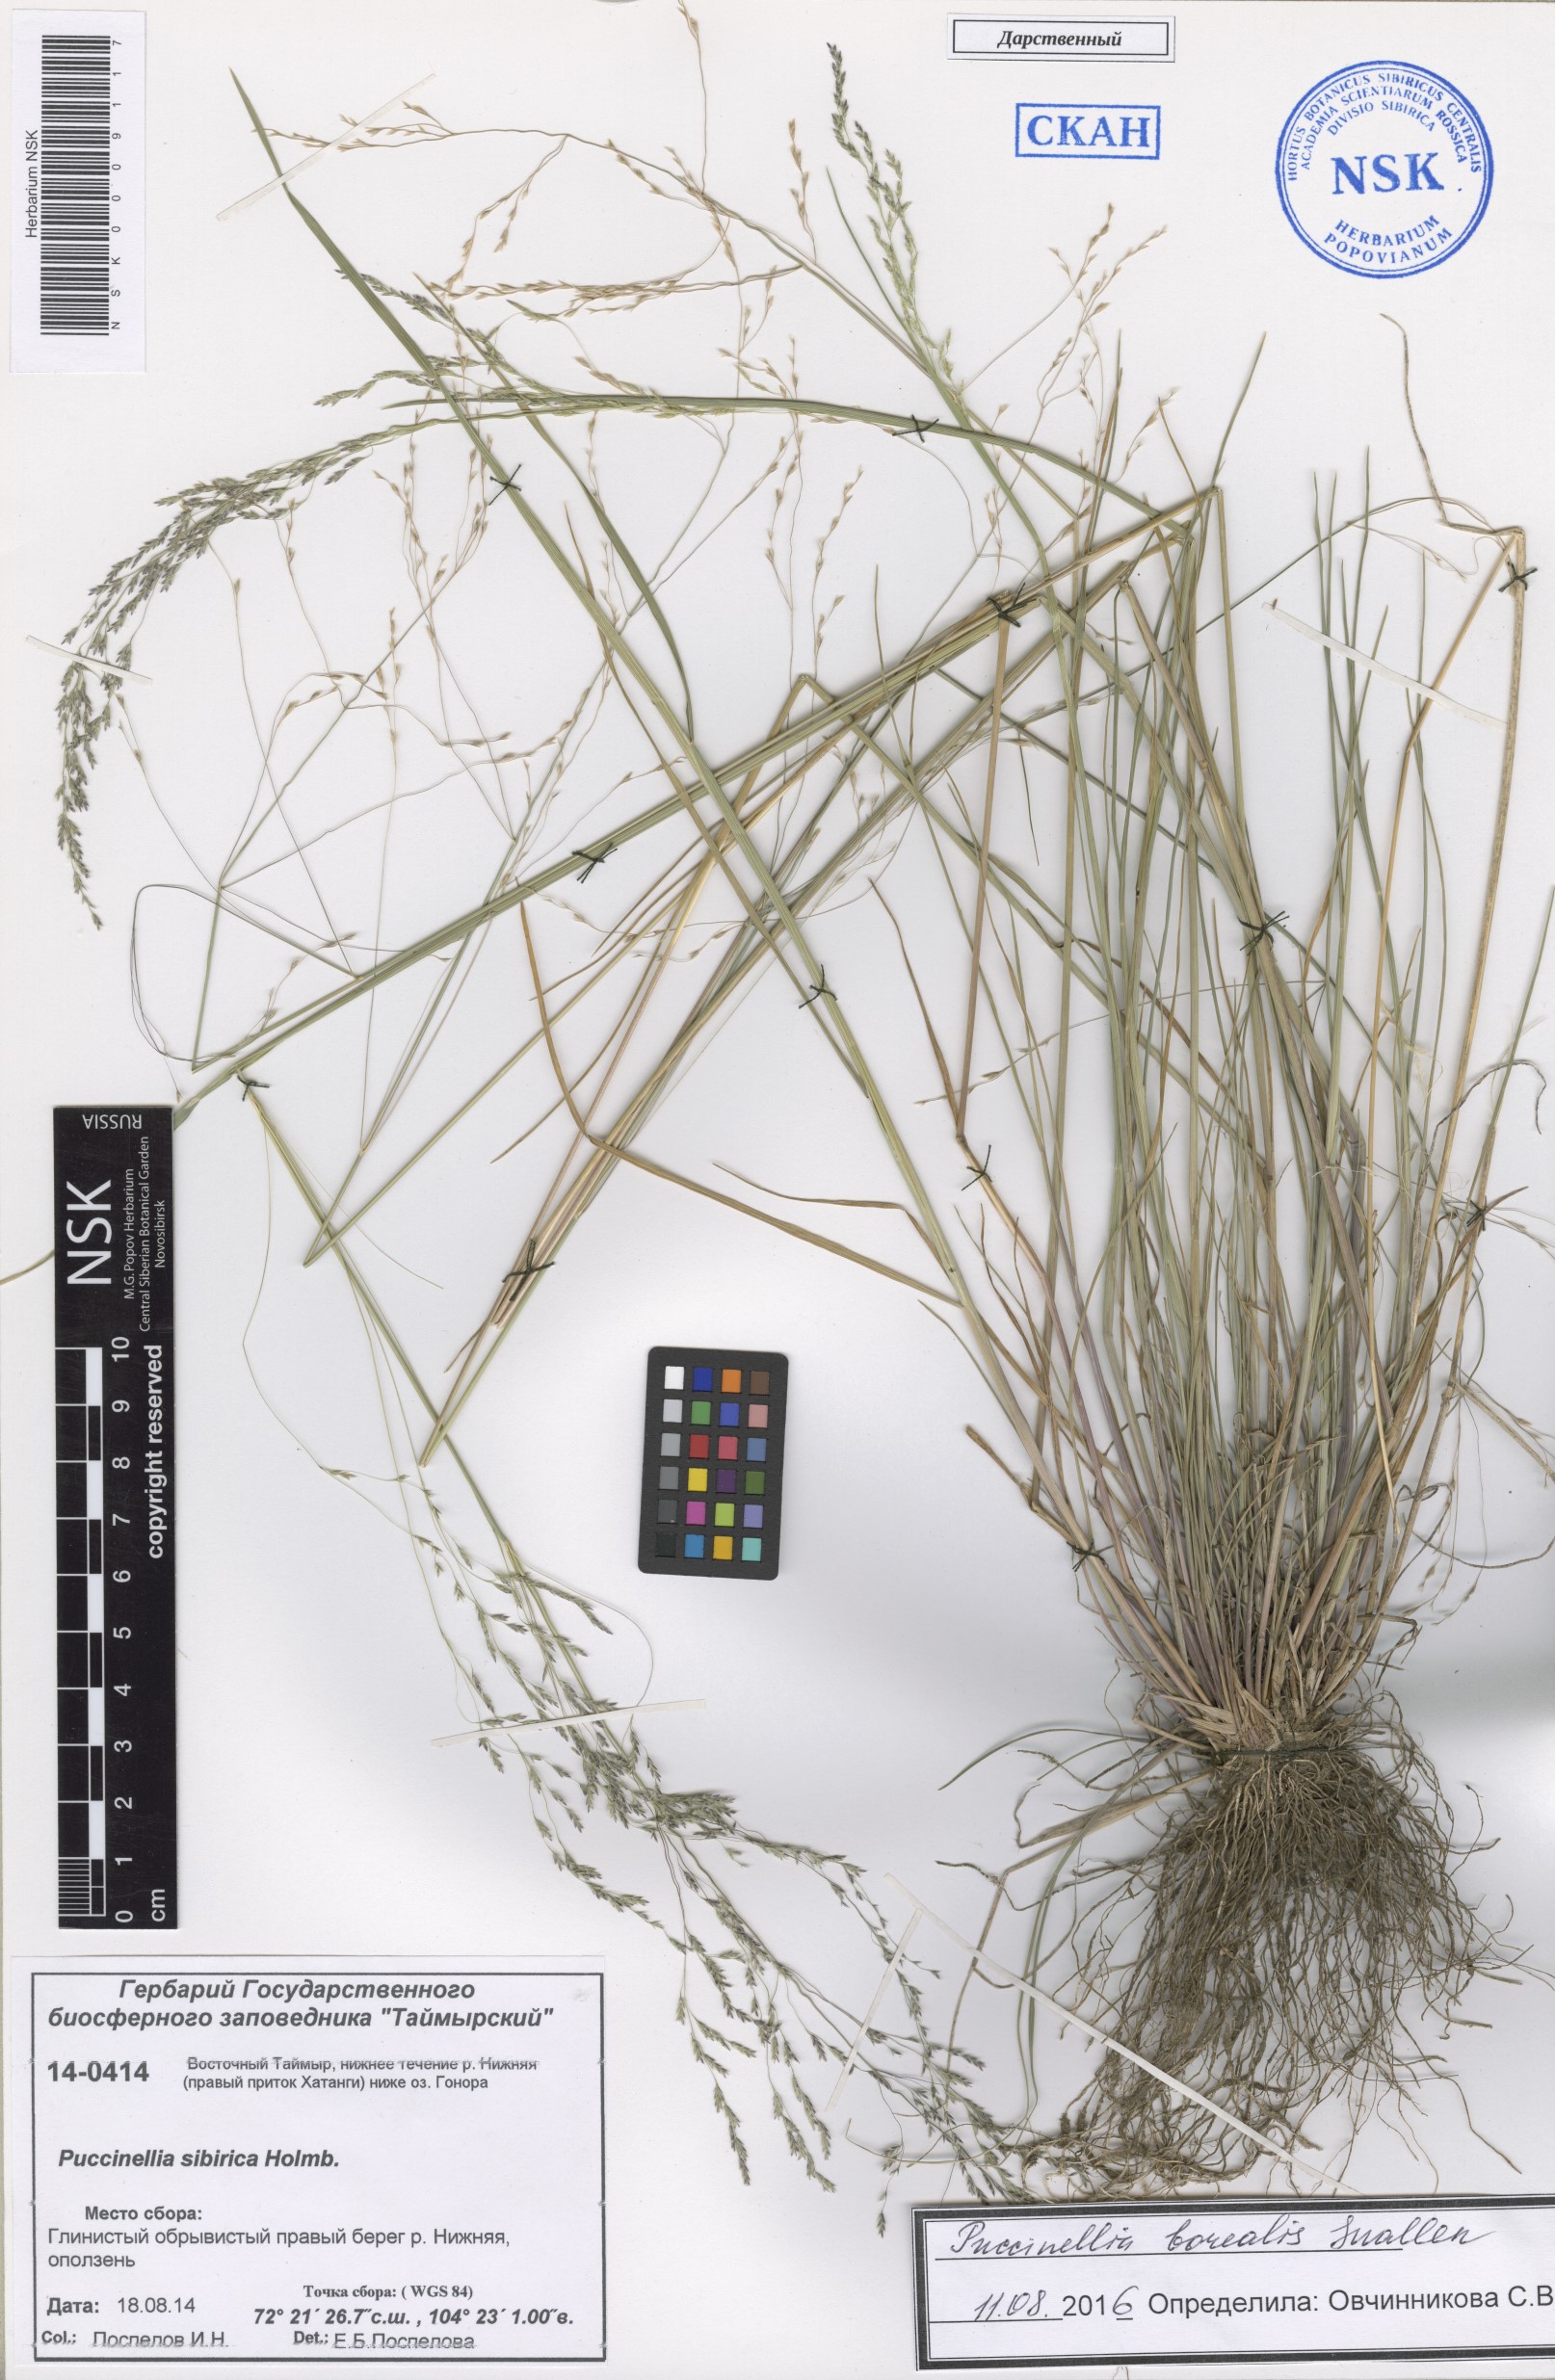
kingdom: Plantae
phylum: Tracheophyta
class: Liliopsida
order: Poales
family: Poaceae
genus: Puccinellia
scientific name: Puccinellia nuttalliana
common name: Nuttall's alkali grass
